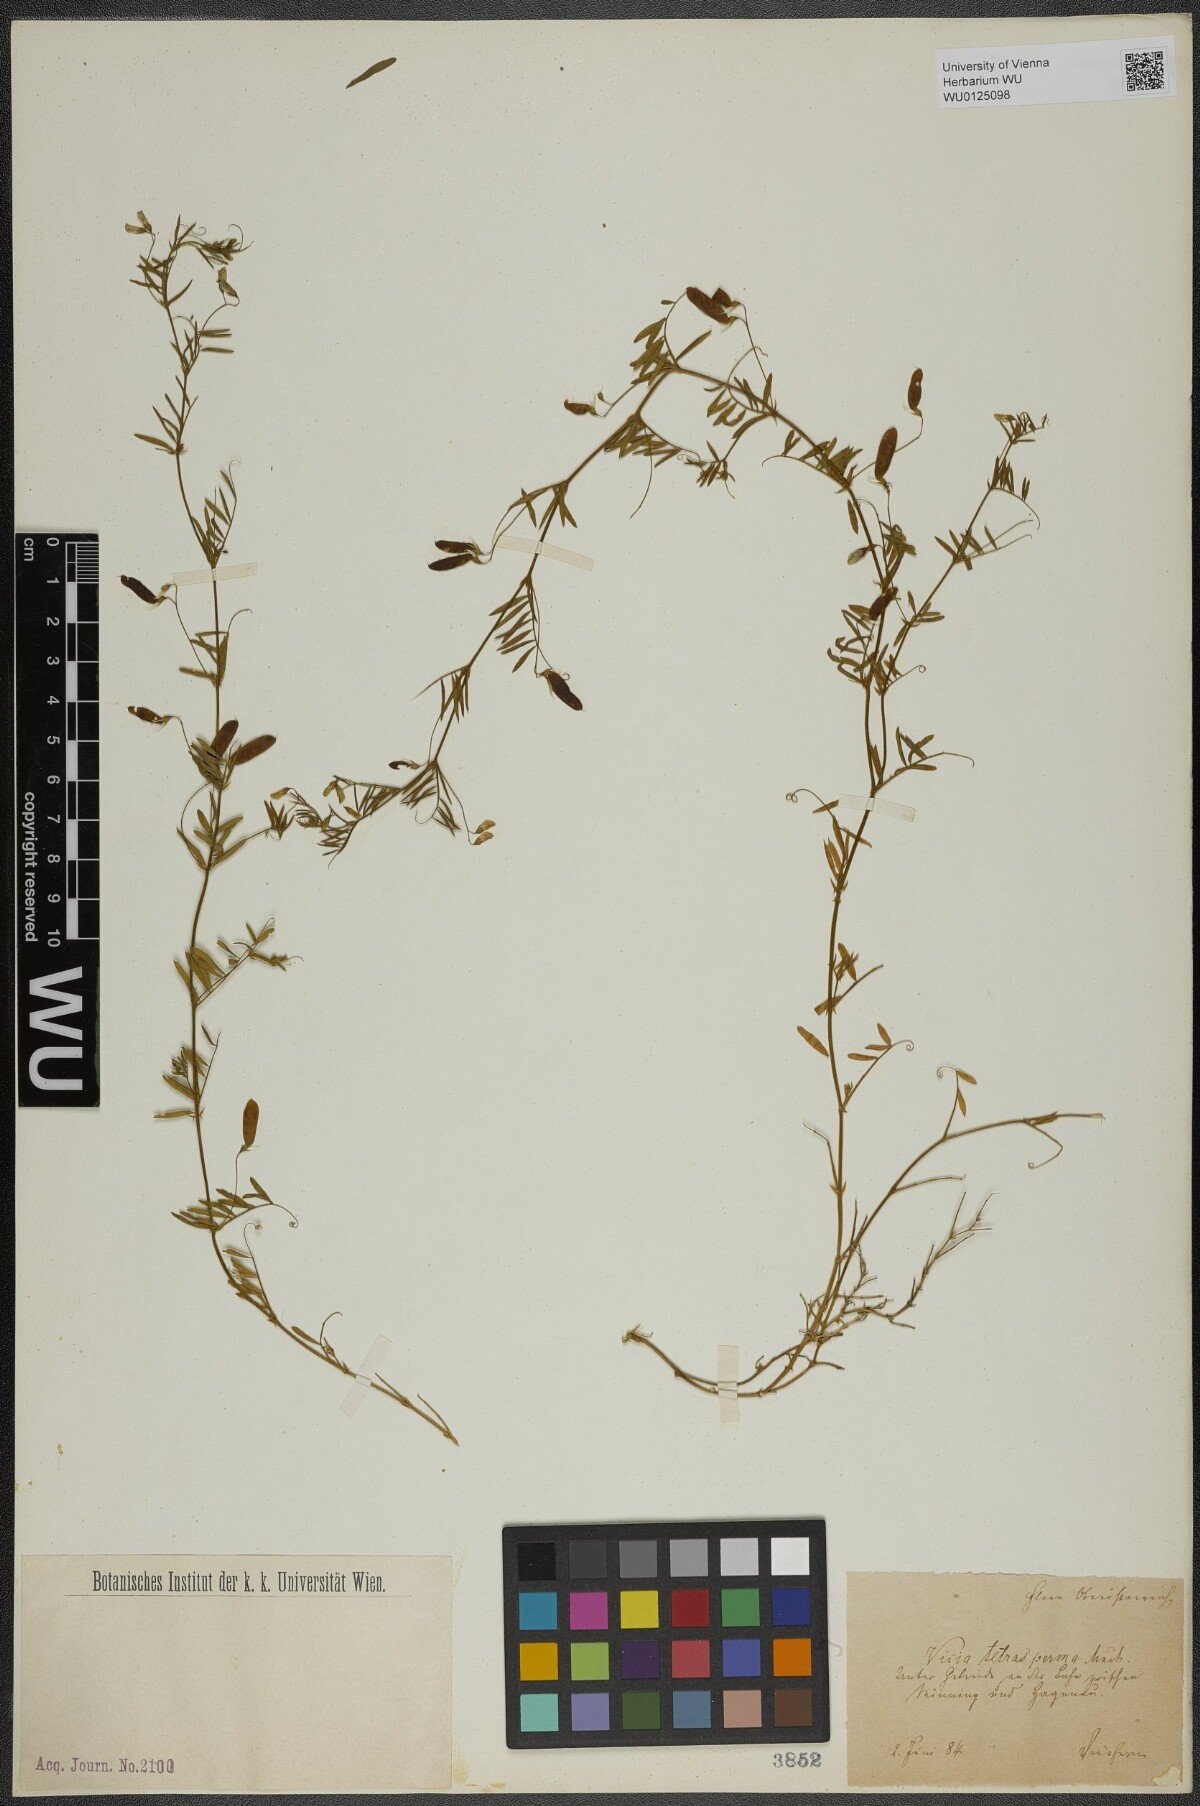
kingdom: Plantae
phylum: Tracheophyta
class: Magnoliopsida
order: Fabales
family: Fabaceae
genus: Vicia
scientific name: Vicia tetrasperma
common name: Smooth tare
